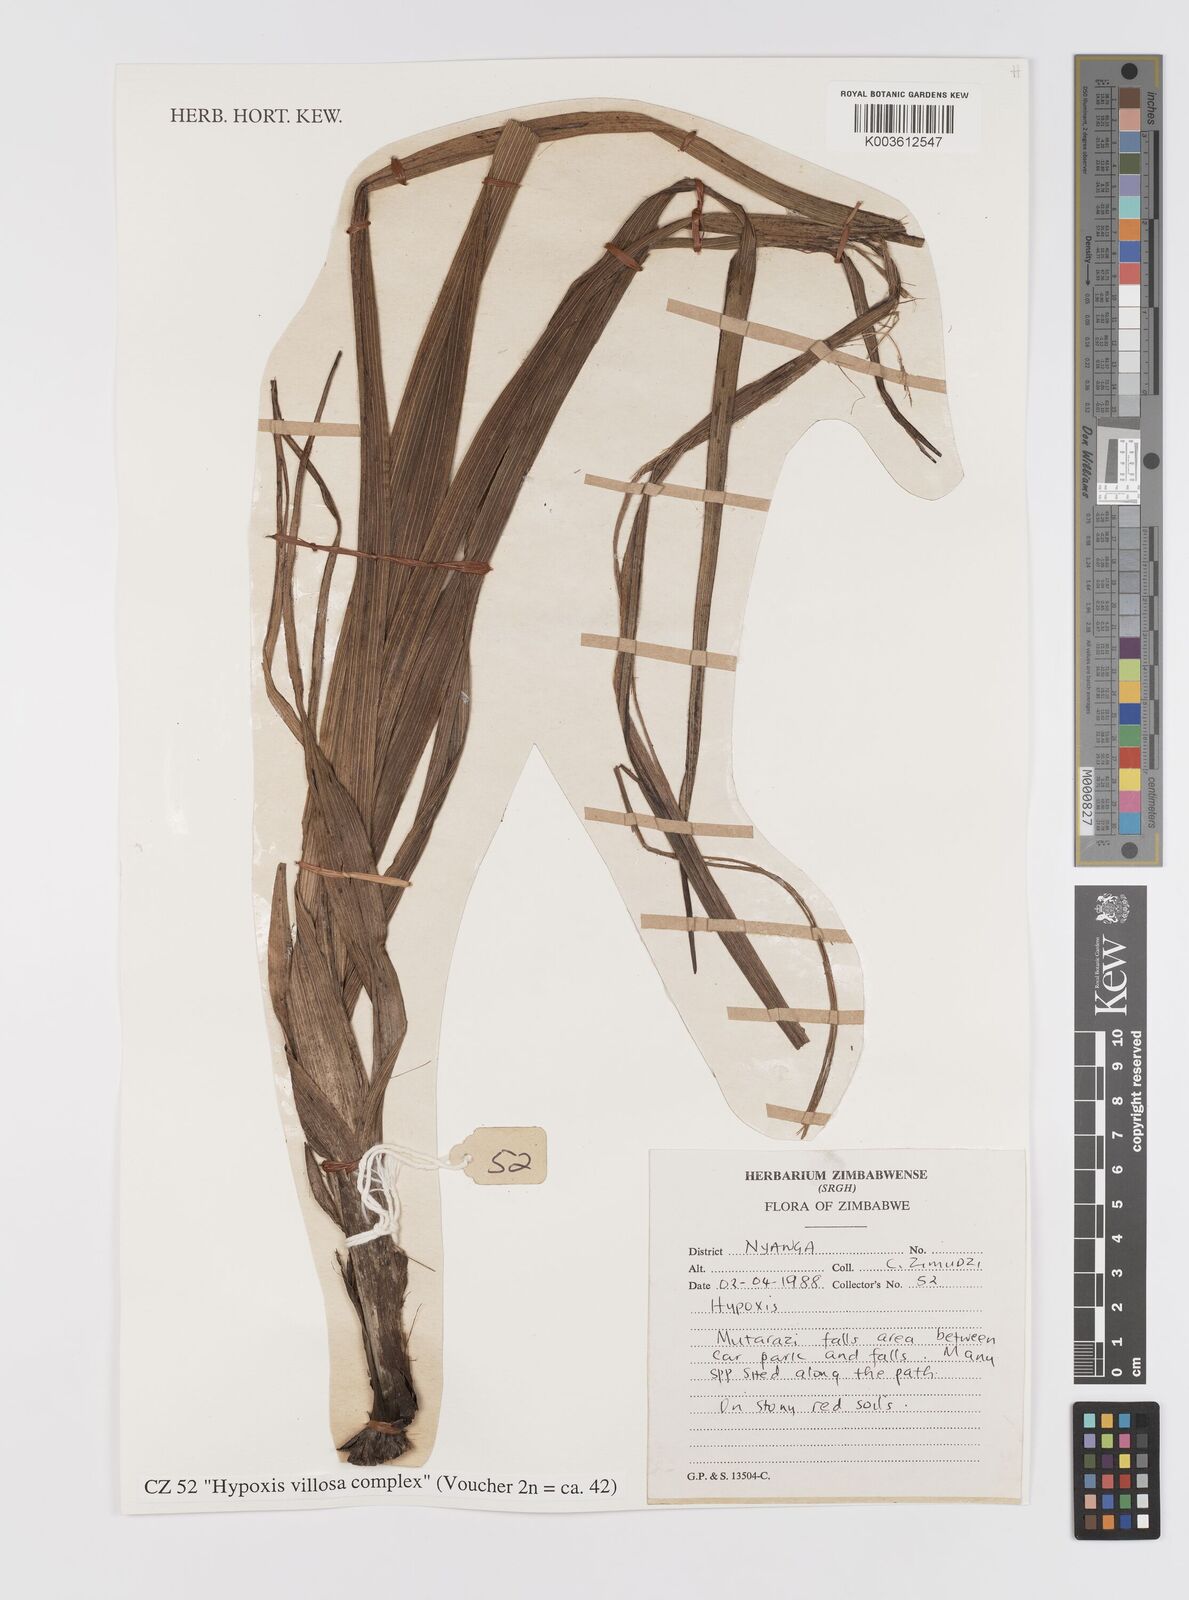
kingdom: Plantae
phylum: Tracheophyta
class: Liliopsida
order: Asparagales
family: Hypoxidaceae
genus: Hypoxis
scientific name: Hypoxis
